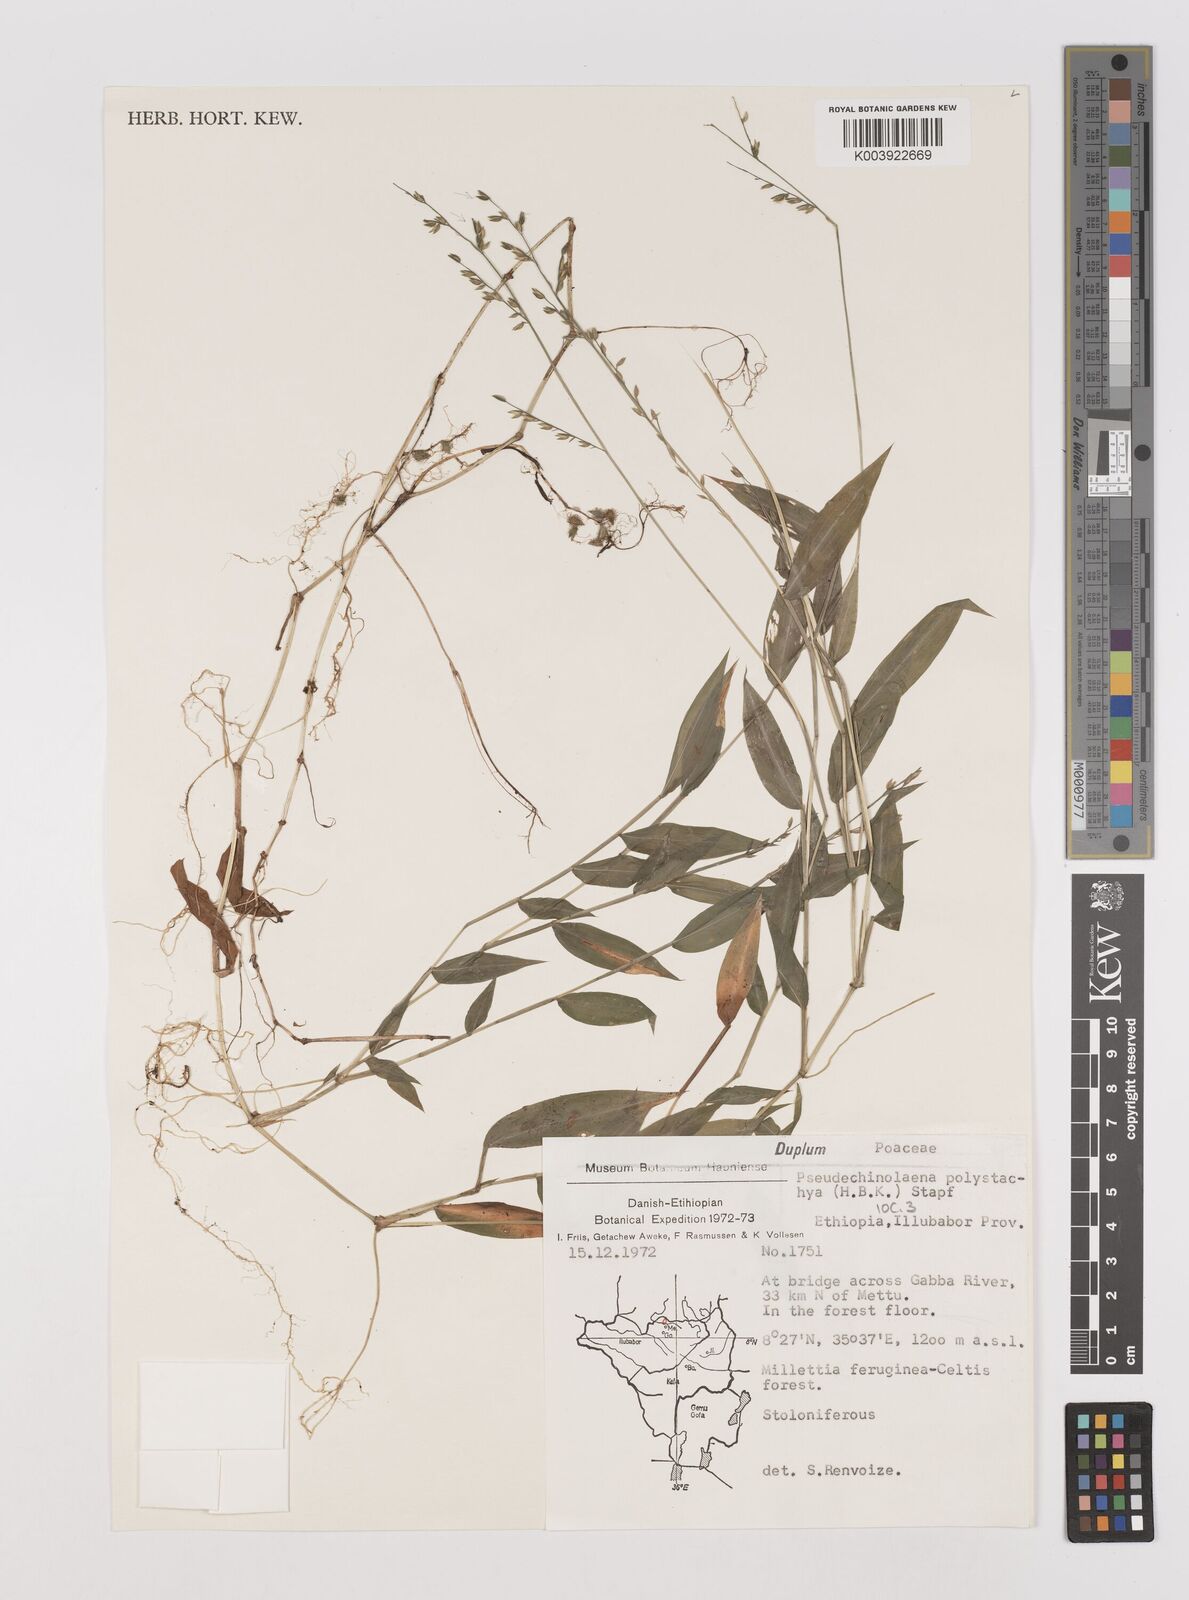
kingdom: Plantae
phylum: Tracheophyta
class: Liliopsida
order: Poales
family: Poaceae
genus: Pseudechinolaena
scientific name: Pseudechinolaena polystachya
